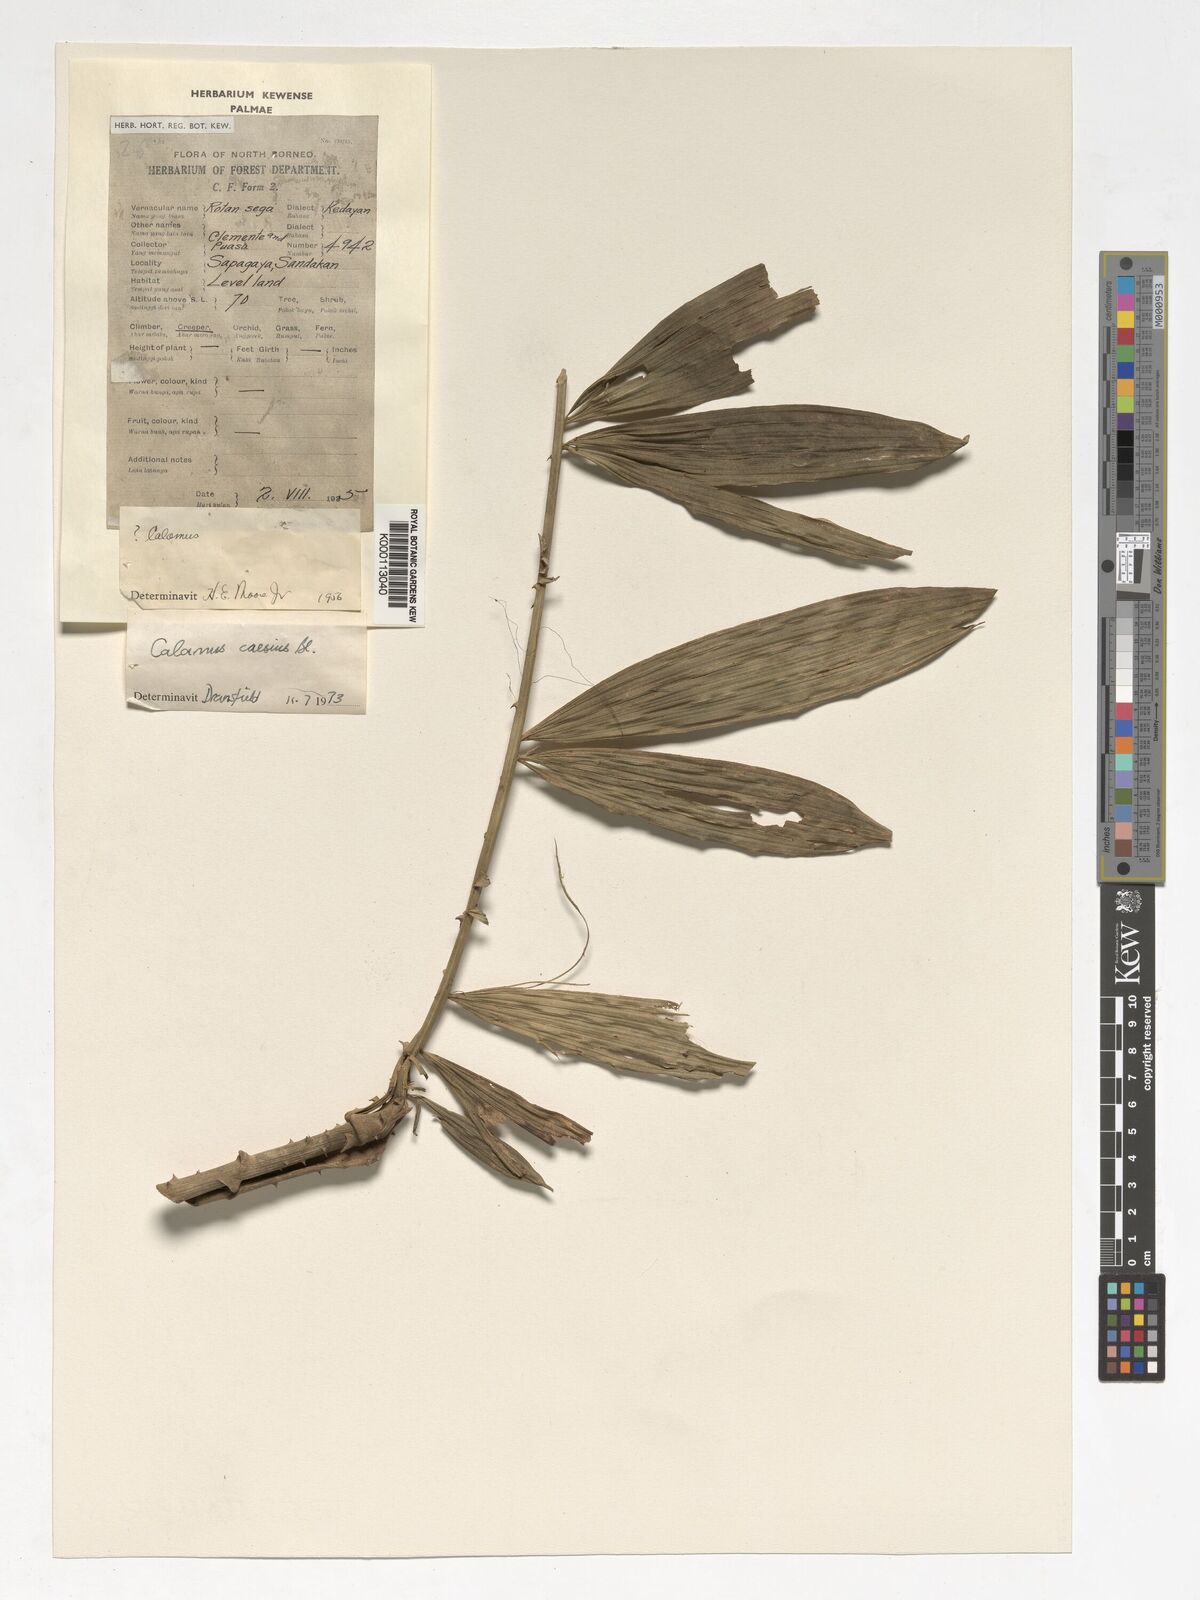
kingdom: Plantae
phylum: Tracheophyta
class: Liliopsida
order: Arecales
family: Arecaceae
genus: Calamus
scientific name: Calamus caesius
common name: Rattan palm
